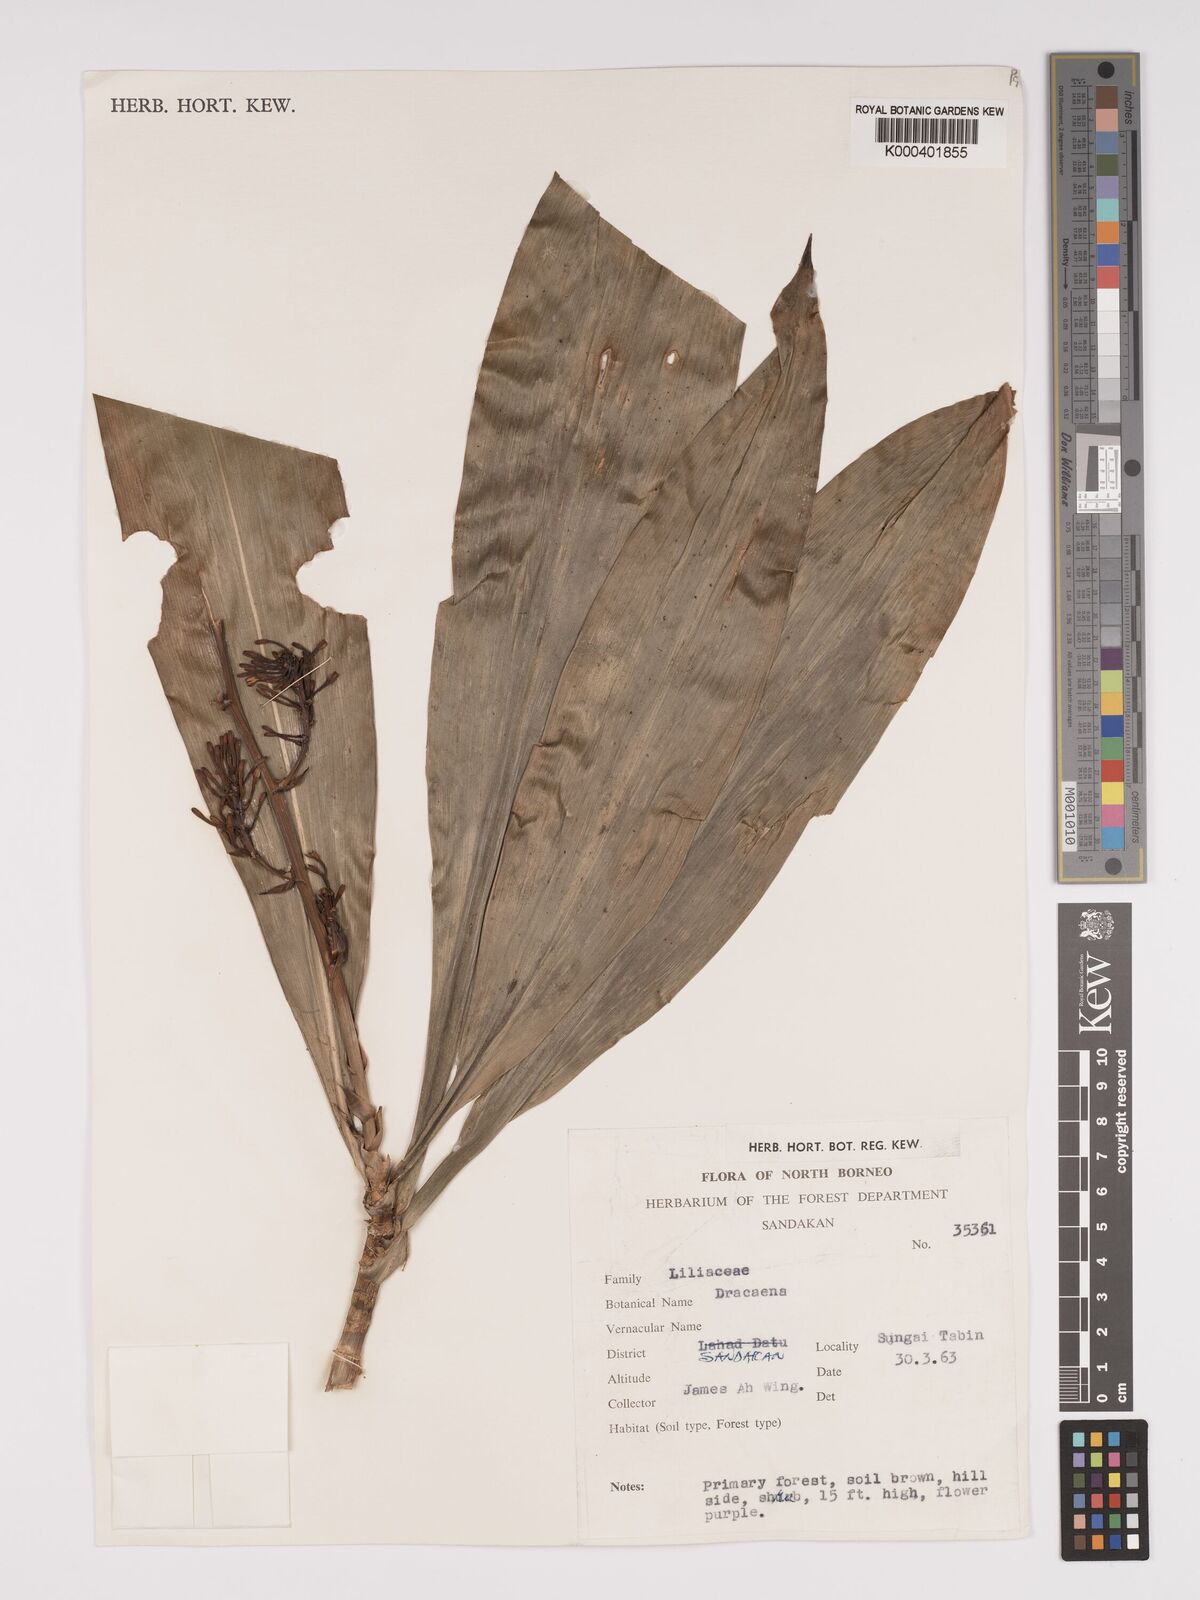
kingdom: Plantae
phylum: Tracheophyta
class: Liliopsida
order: Asparagales
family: Asparagaceae
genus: Dracaena
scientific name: Dracaena
